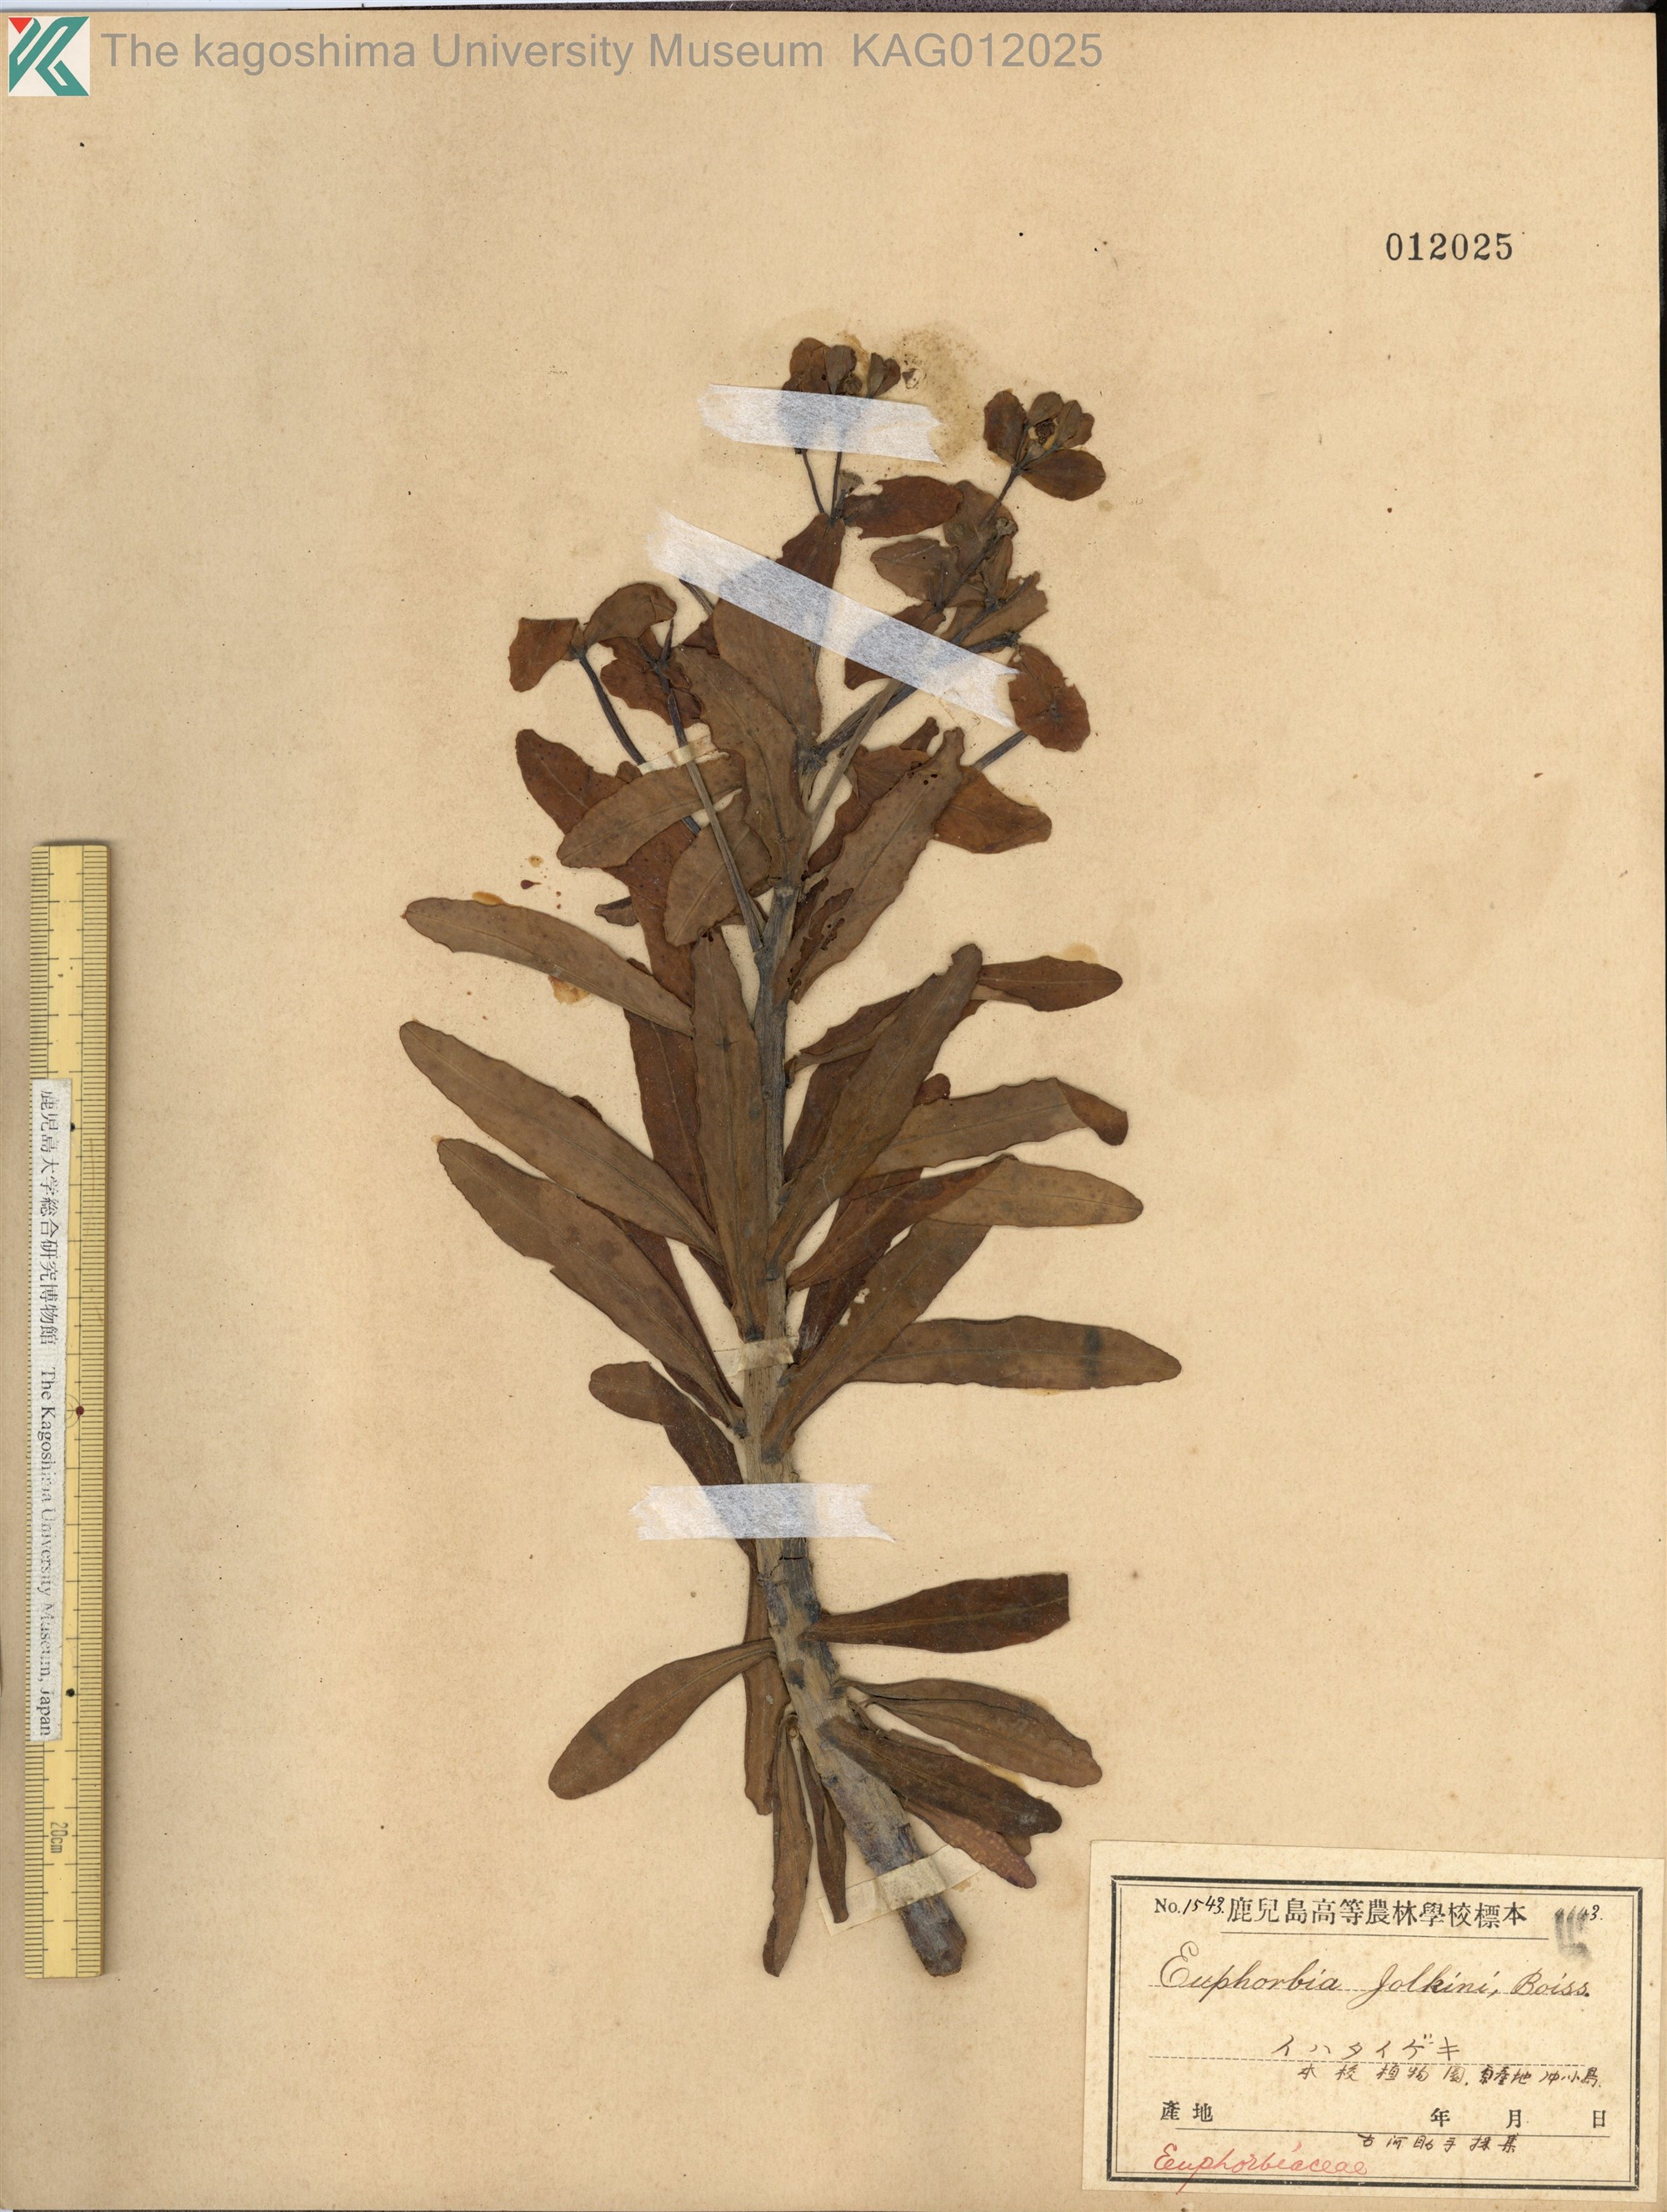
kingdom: Plantae
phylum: Tracheophyta
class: Magnoliopsida
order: Malpighiales
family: Euphorbiaceae
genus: Euphorbia
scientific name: Euphorbia jolkinii
